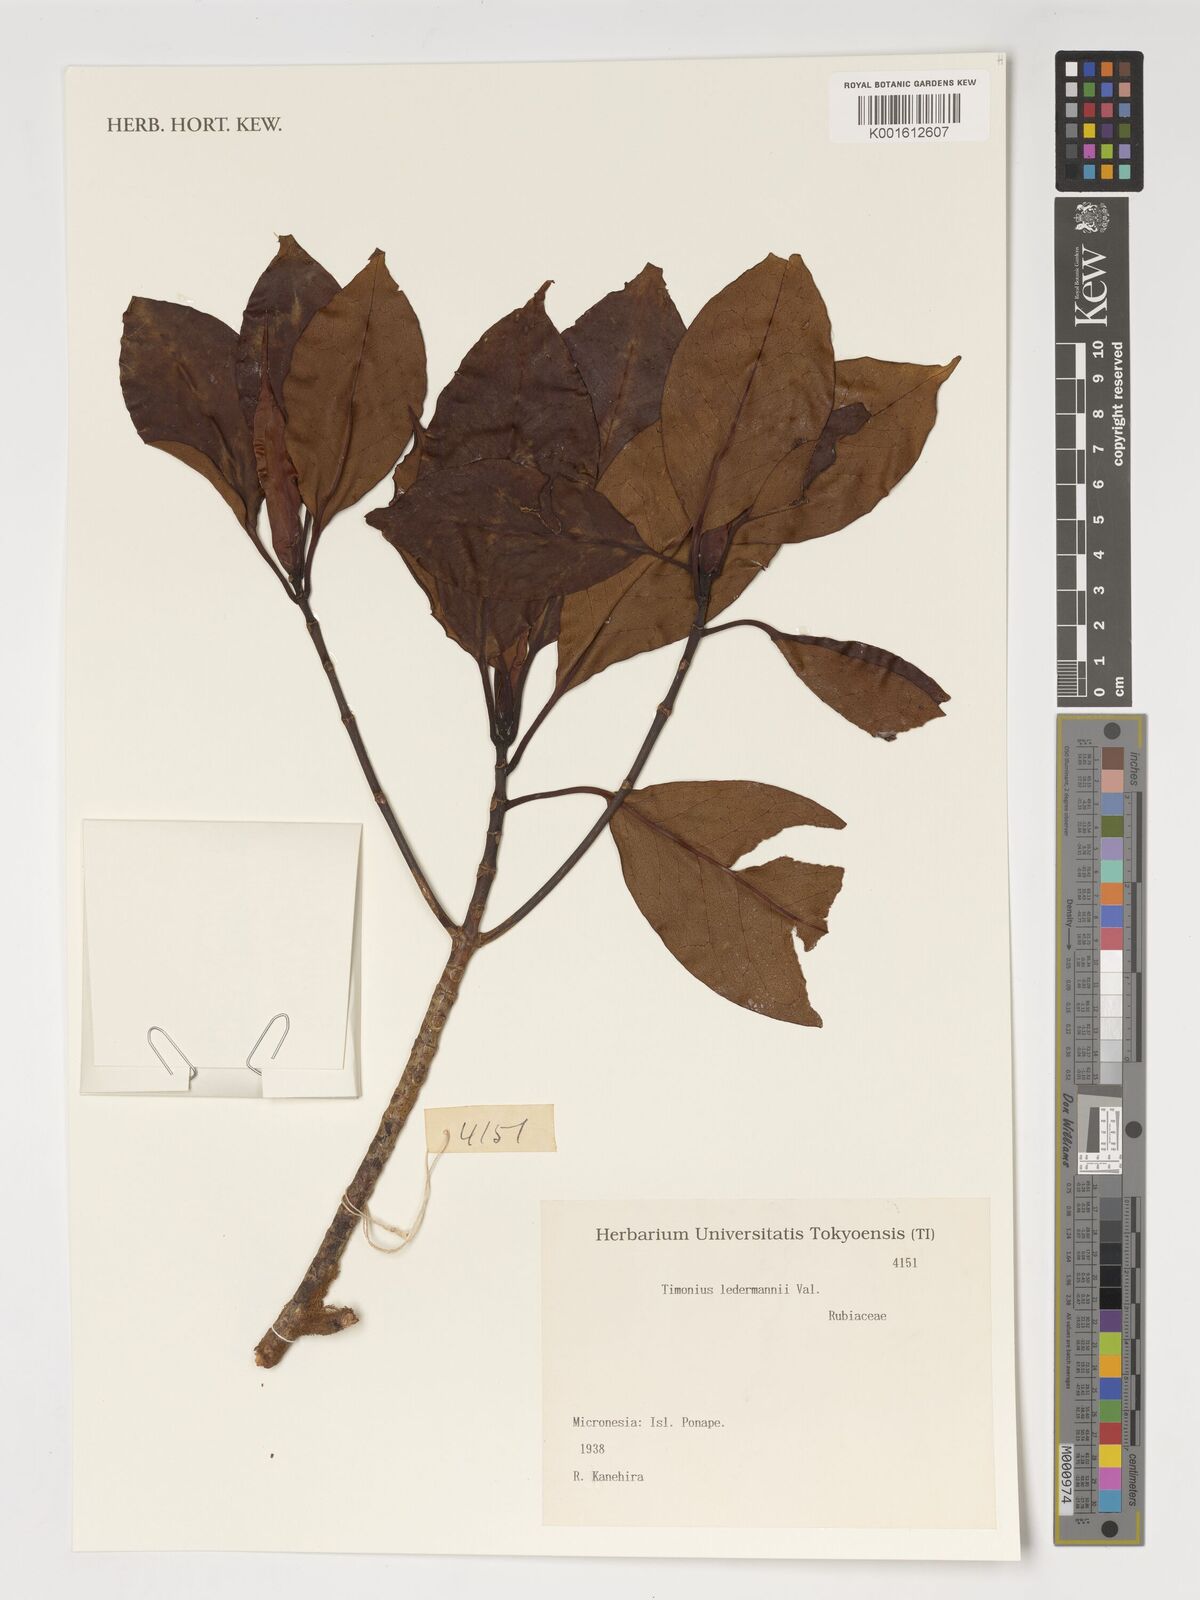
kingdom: Plantae
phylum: Tracheophyta
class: Magnoliopsida
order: Gentianales
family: Rubiaceae
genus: Timonius
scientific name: Timonius ledermannii
